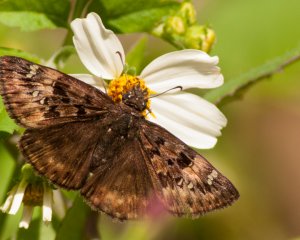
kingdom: Animalia
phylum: Arthropoda
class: Insecta
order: Lepidoptera
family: Hesperiidae
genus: Gesta
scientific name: Gesta
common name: Horace's Duskywing
